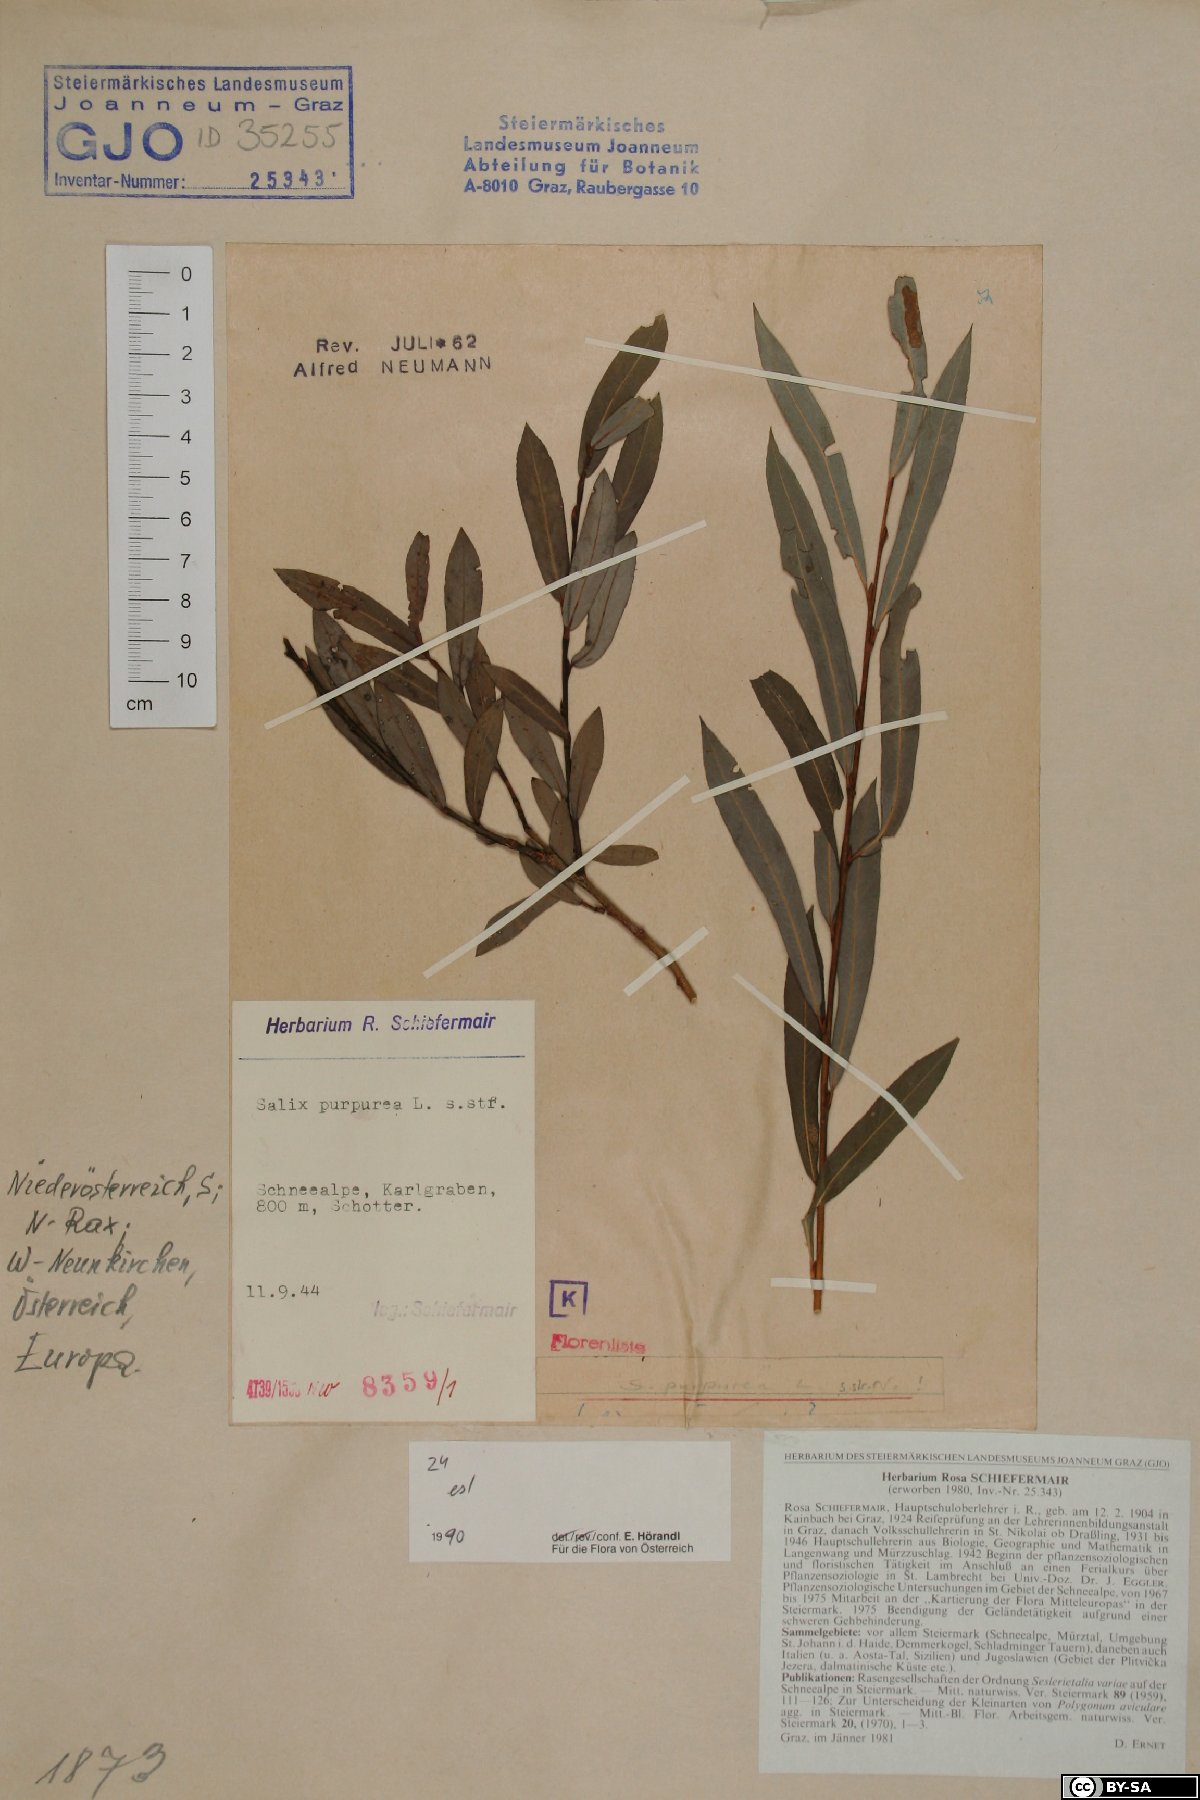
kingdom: Plantae
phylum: Tracheophyta
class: Magnoliopsida
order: Malpighiales
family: Salicaceae
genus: Salix
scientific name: Salix purpurea
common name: Purple willow
